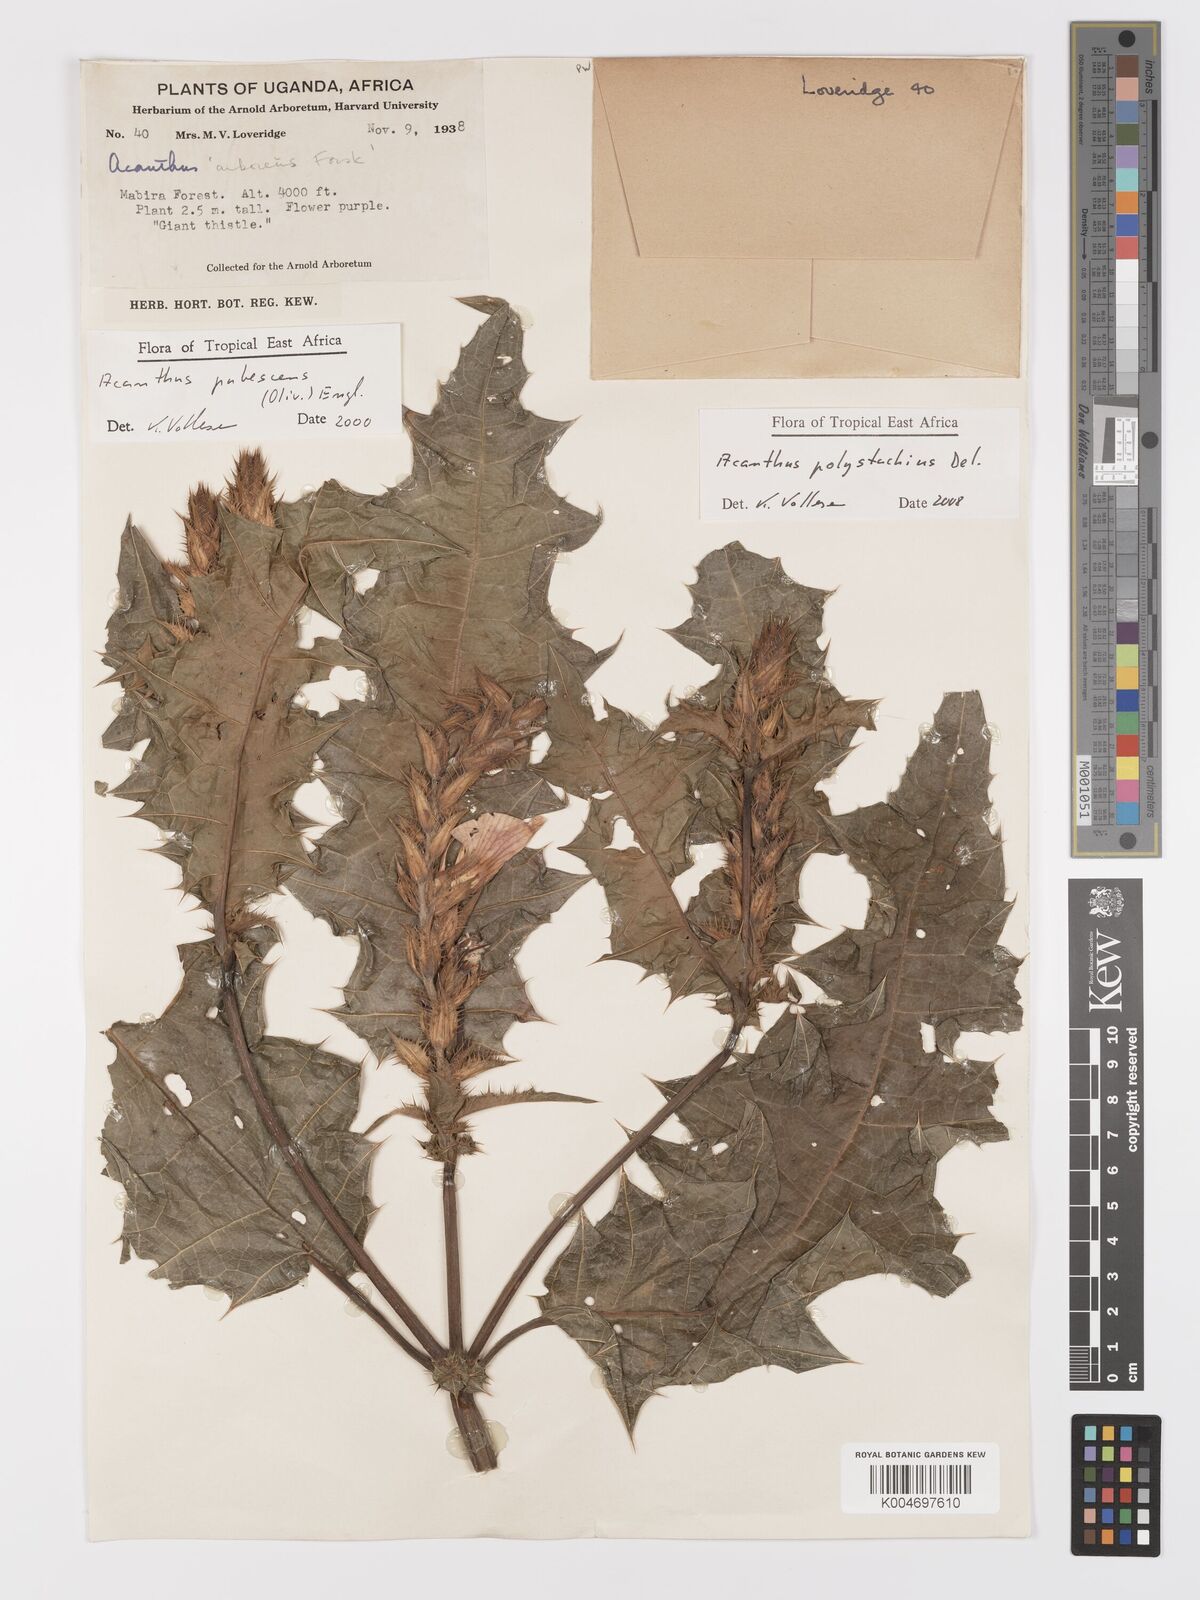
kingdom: Plantae
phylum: Tracheophyta
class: Magnoliopsida
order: Lamiales
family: Acanthaceae
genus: Acanthus
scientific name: Acanthus polystachyus
